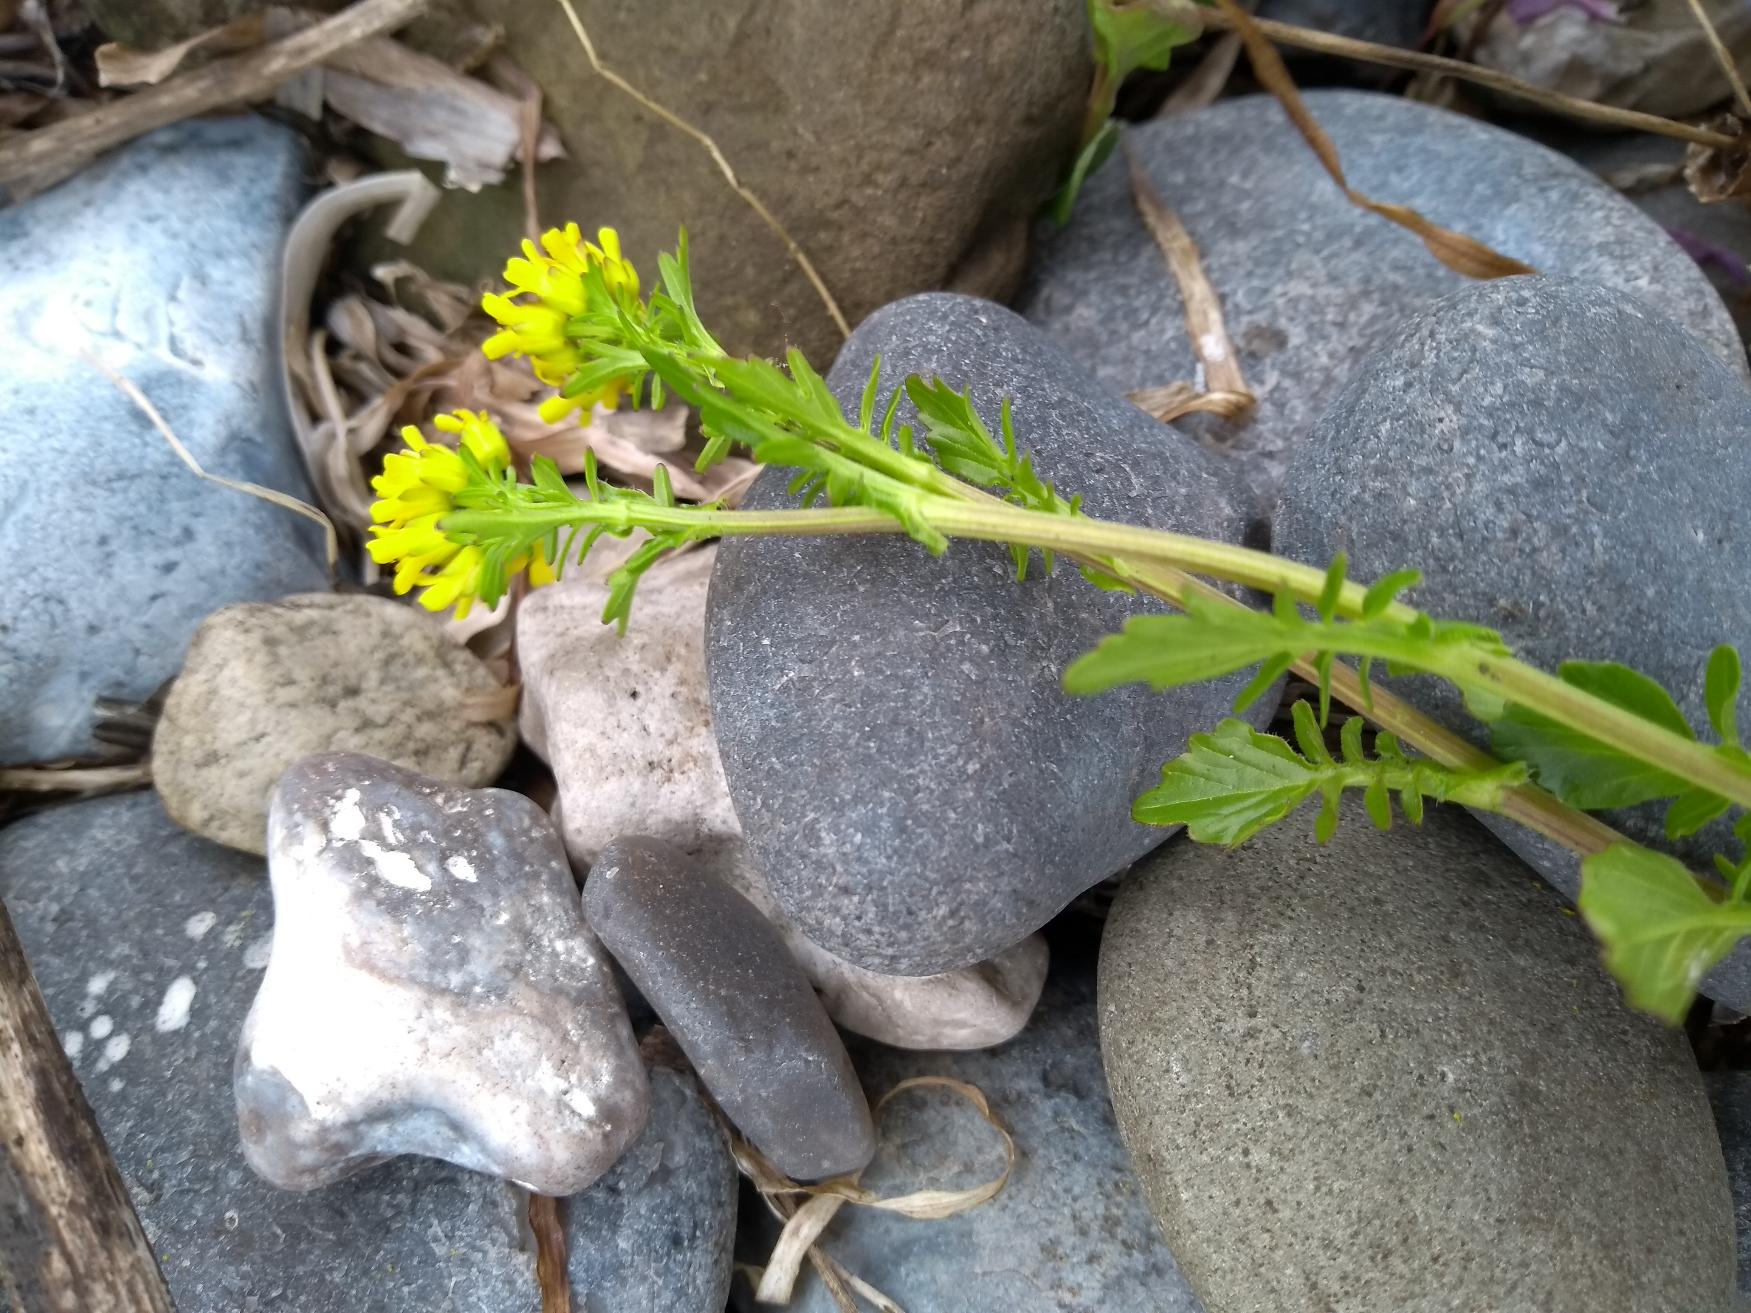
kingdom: Plantae
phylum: Tracheophyta
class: Magnoliopsida
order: Brassicales
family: Brassicaceae
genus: Barbarea
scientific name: Barbarea intermedia
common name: Randhåret vinterkarse
